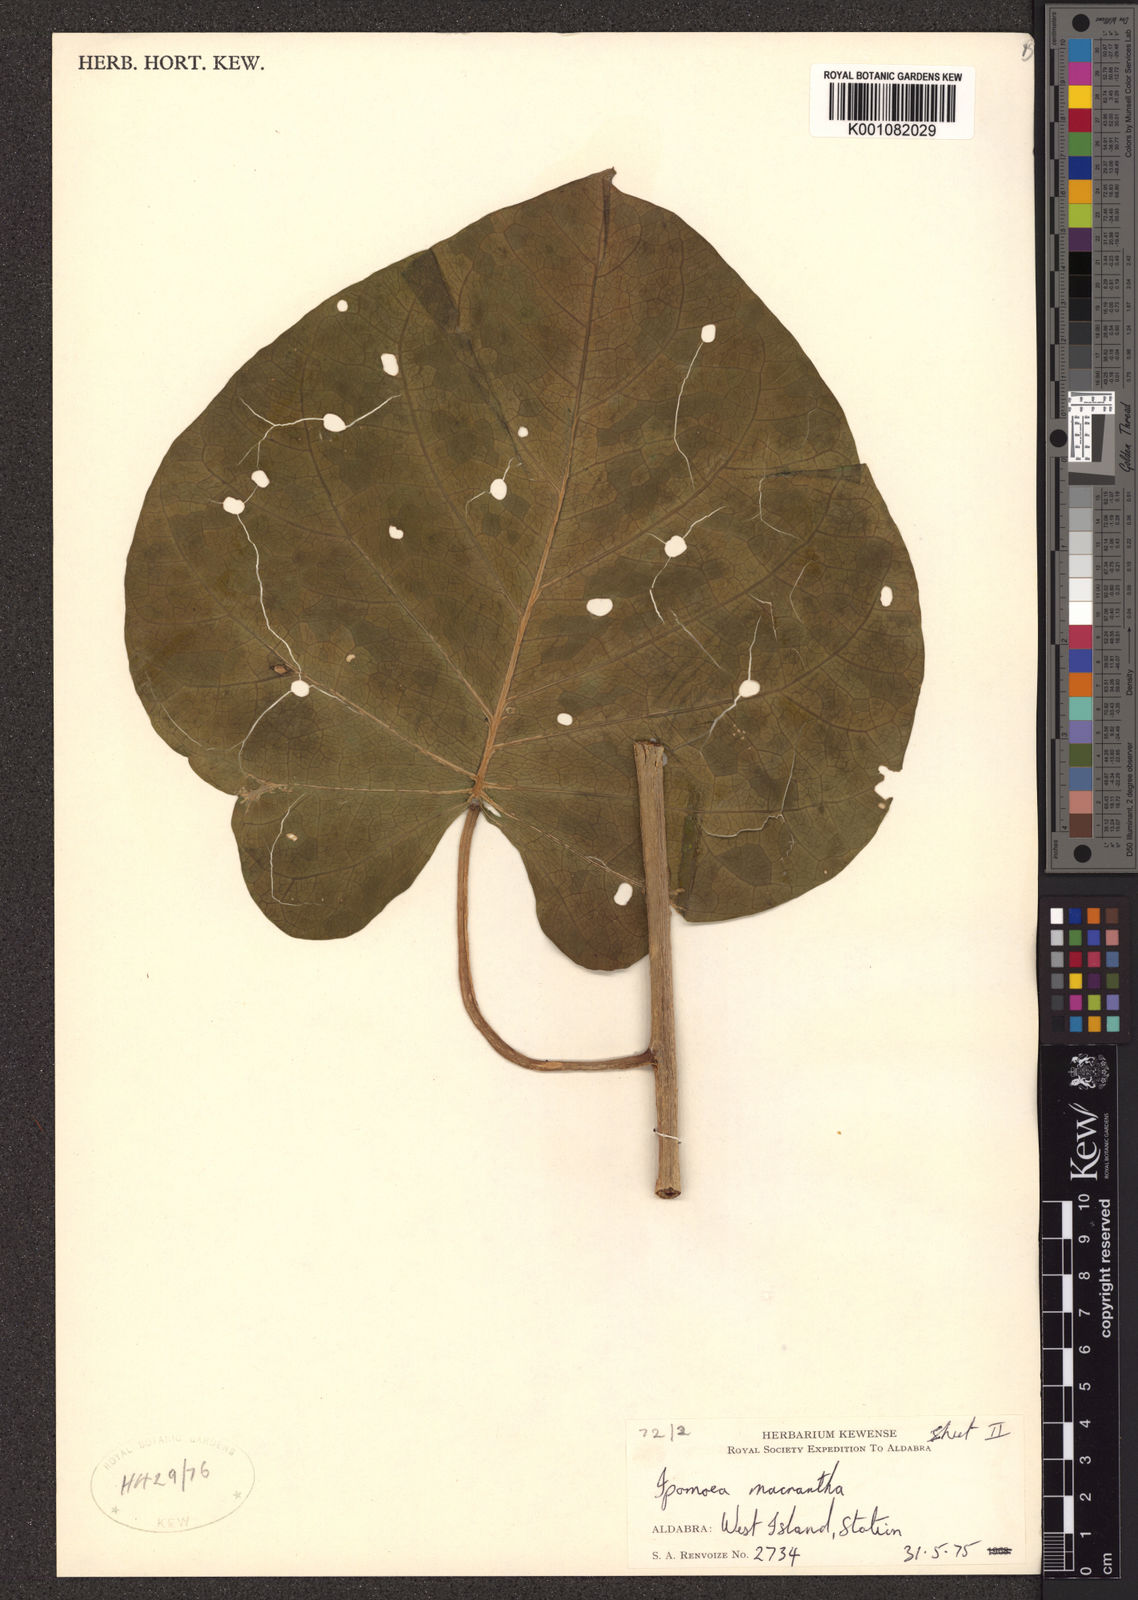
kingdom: Plantae
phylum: Tracheophyta
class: Magnoliopsida
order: Solanales
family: Convolvulaceae
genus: Ipomoea
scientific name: Ipomoea violacea
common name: Beach moonflower
